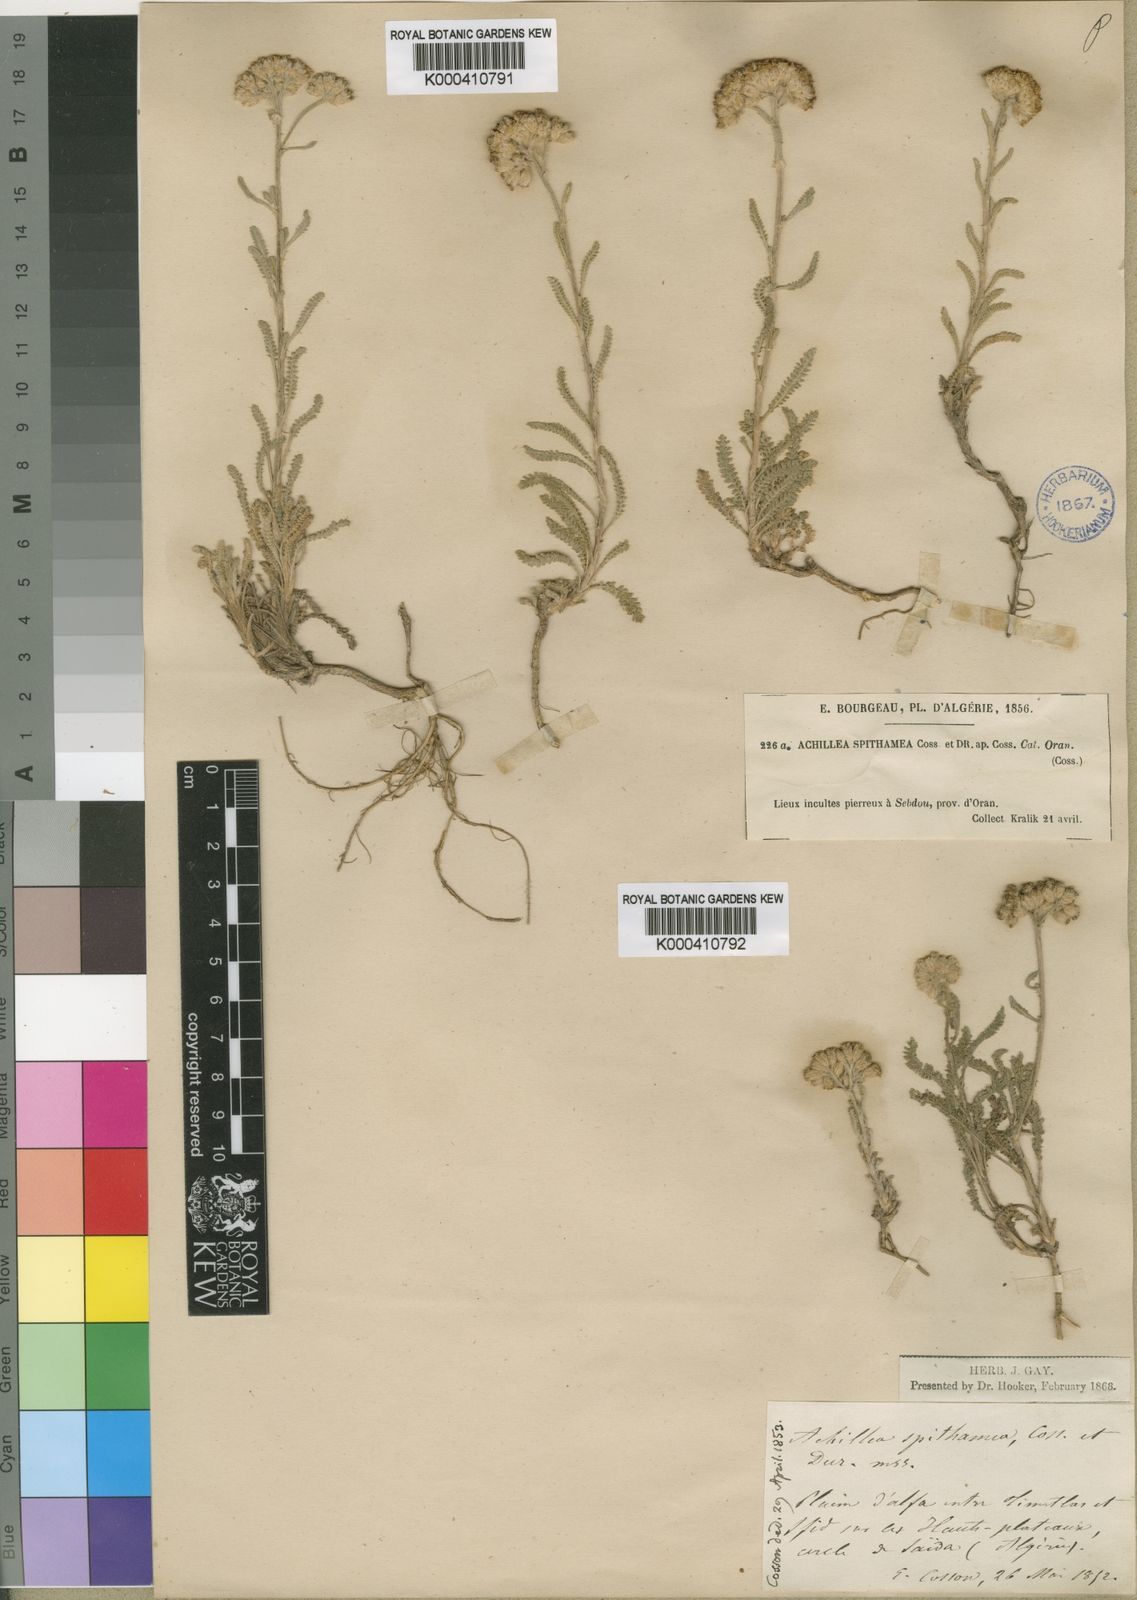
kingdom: Plantae
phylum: Tracheophyta
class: Magnoliopsida
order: Asterales
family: Asteraceae
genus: Achillea
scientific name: Achillea crithmifolia
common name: Yarrow
